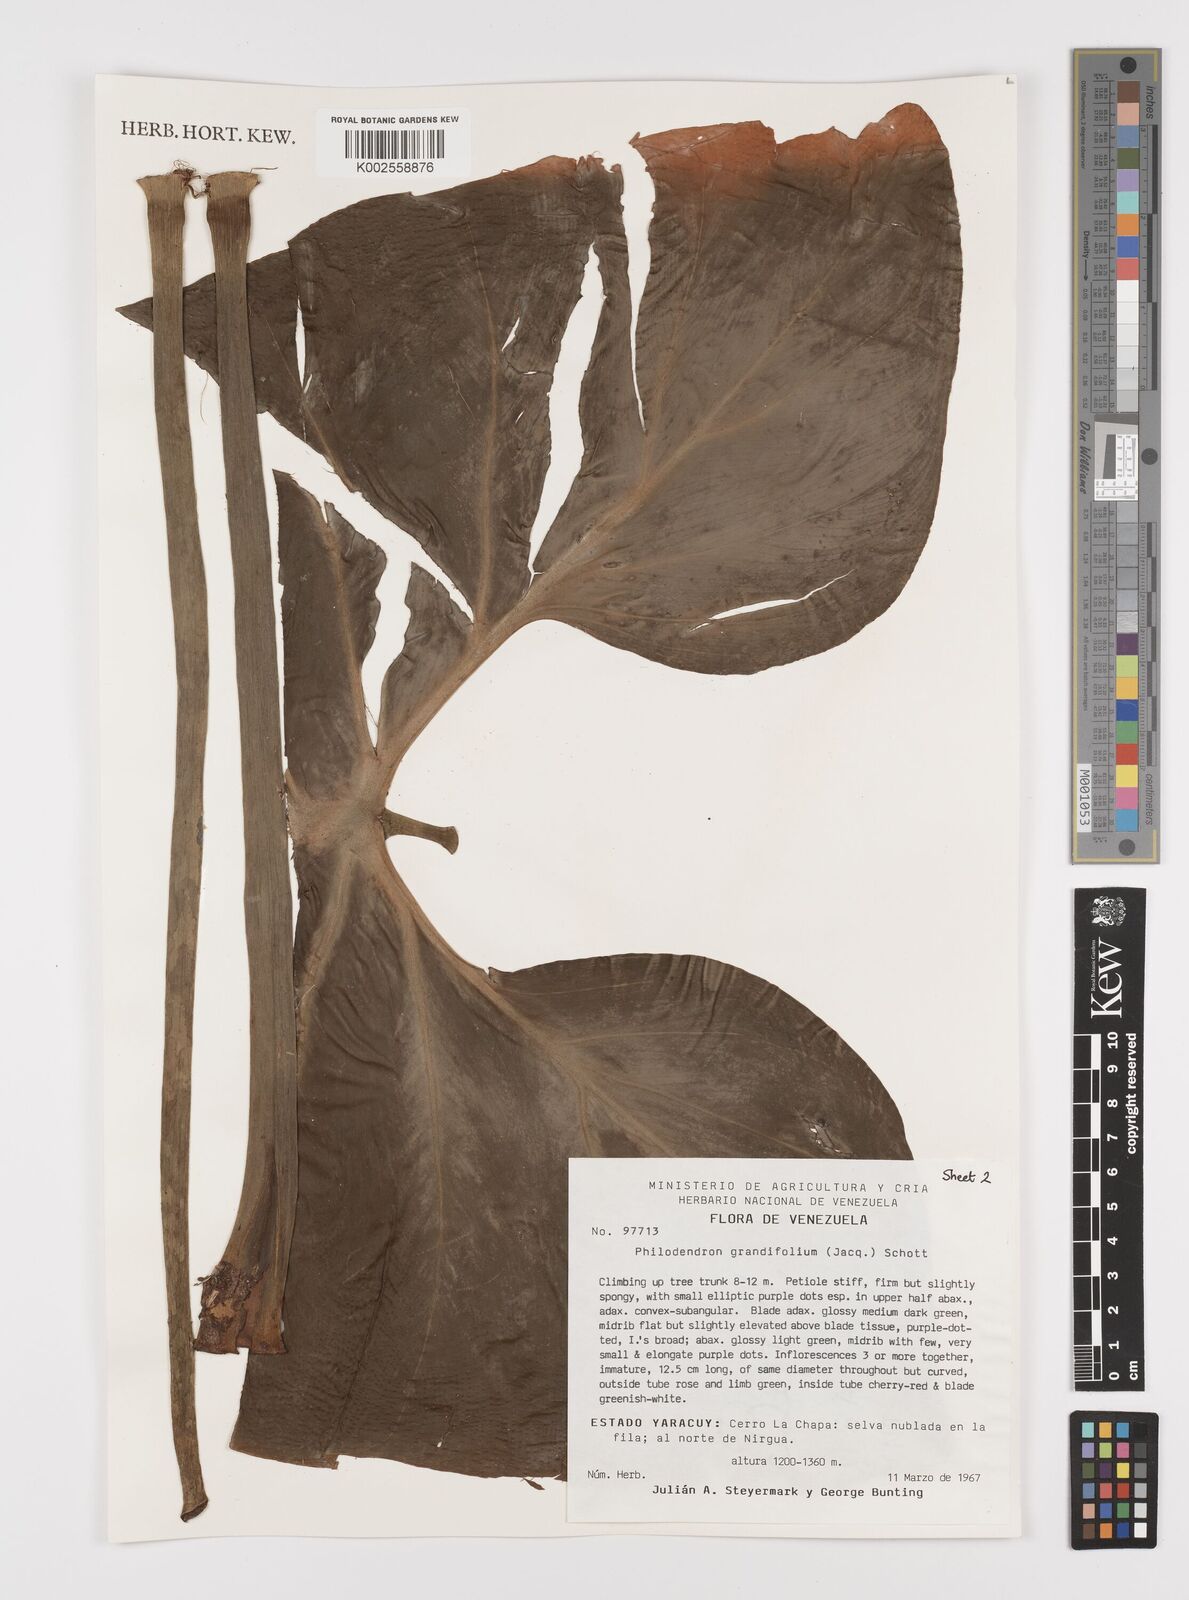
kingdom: Plantae
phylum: Tracheophyta
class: Liliopsida
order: Alismatales
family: Araceae
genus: Philodendron
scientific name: Philodendron grandifolium
